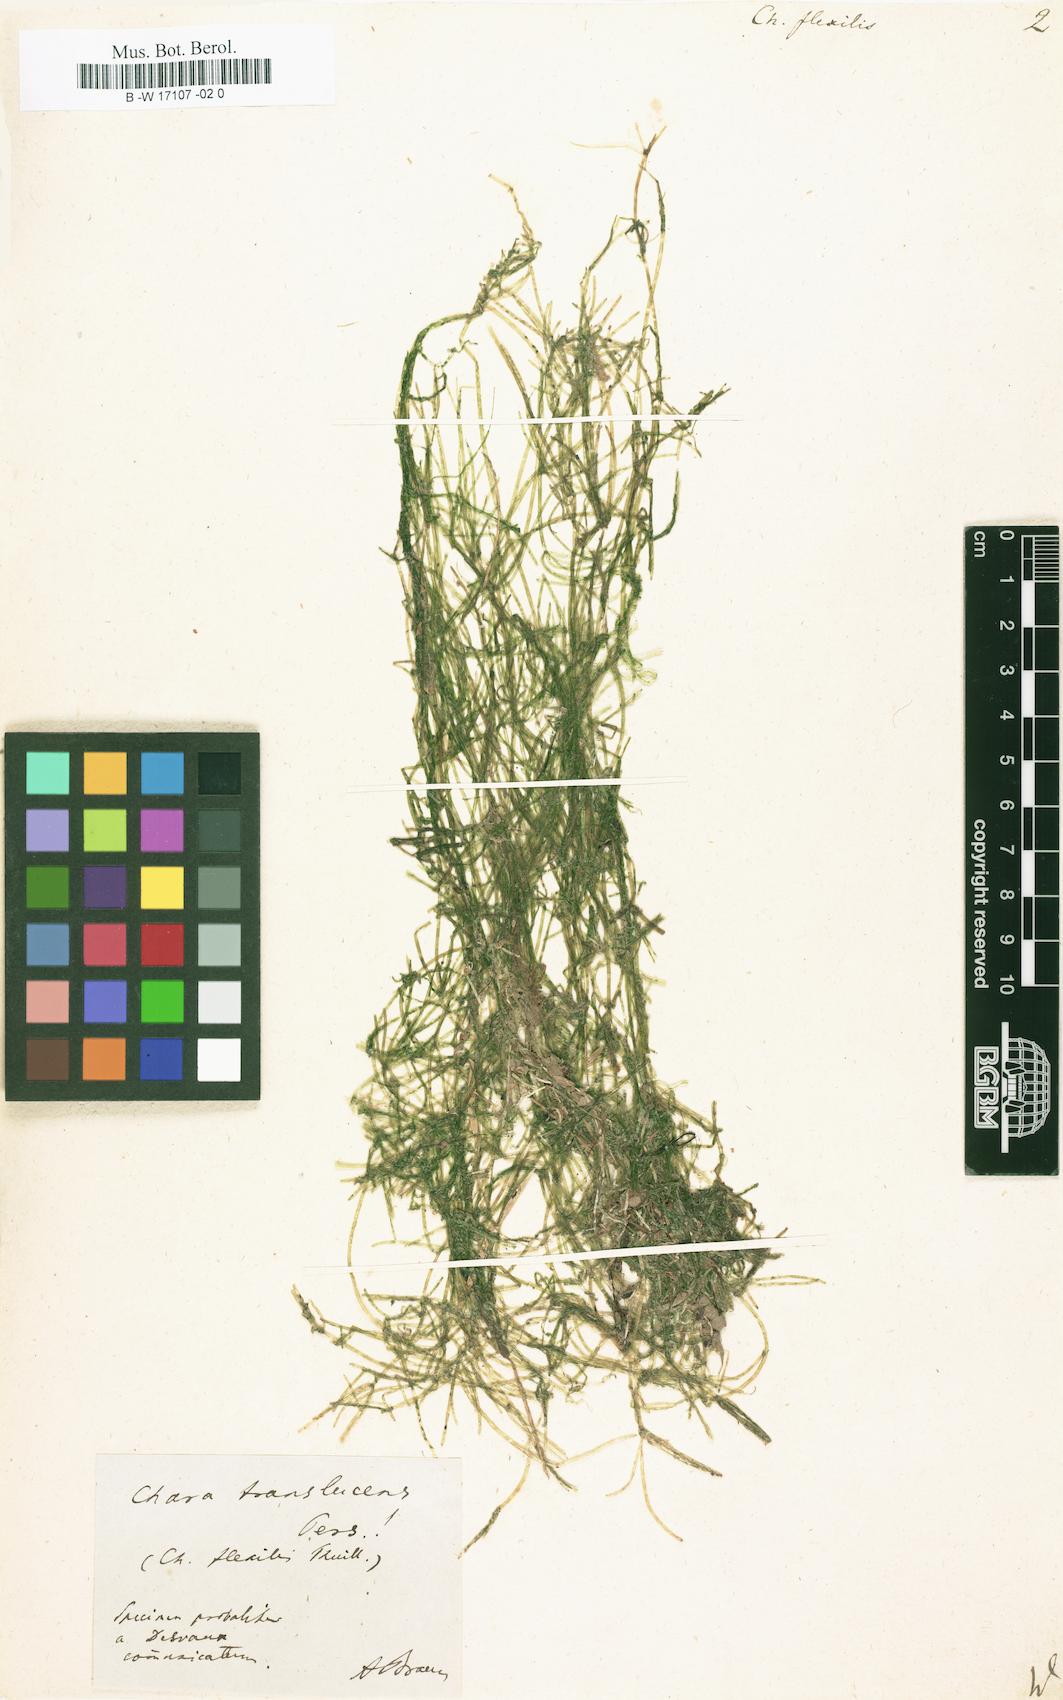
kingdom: Plantae
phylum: Charophyta
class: Charophyceae
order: Charales
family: Characeae
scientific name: Characeae
